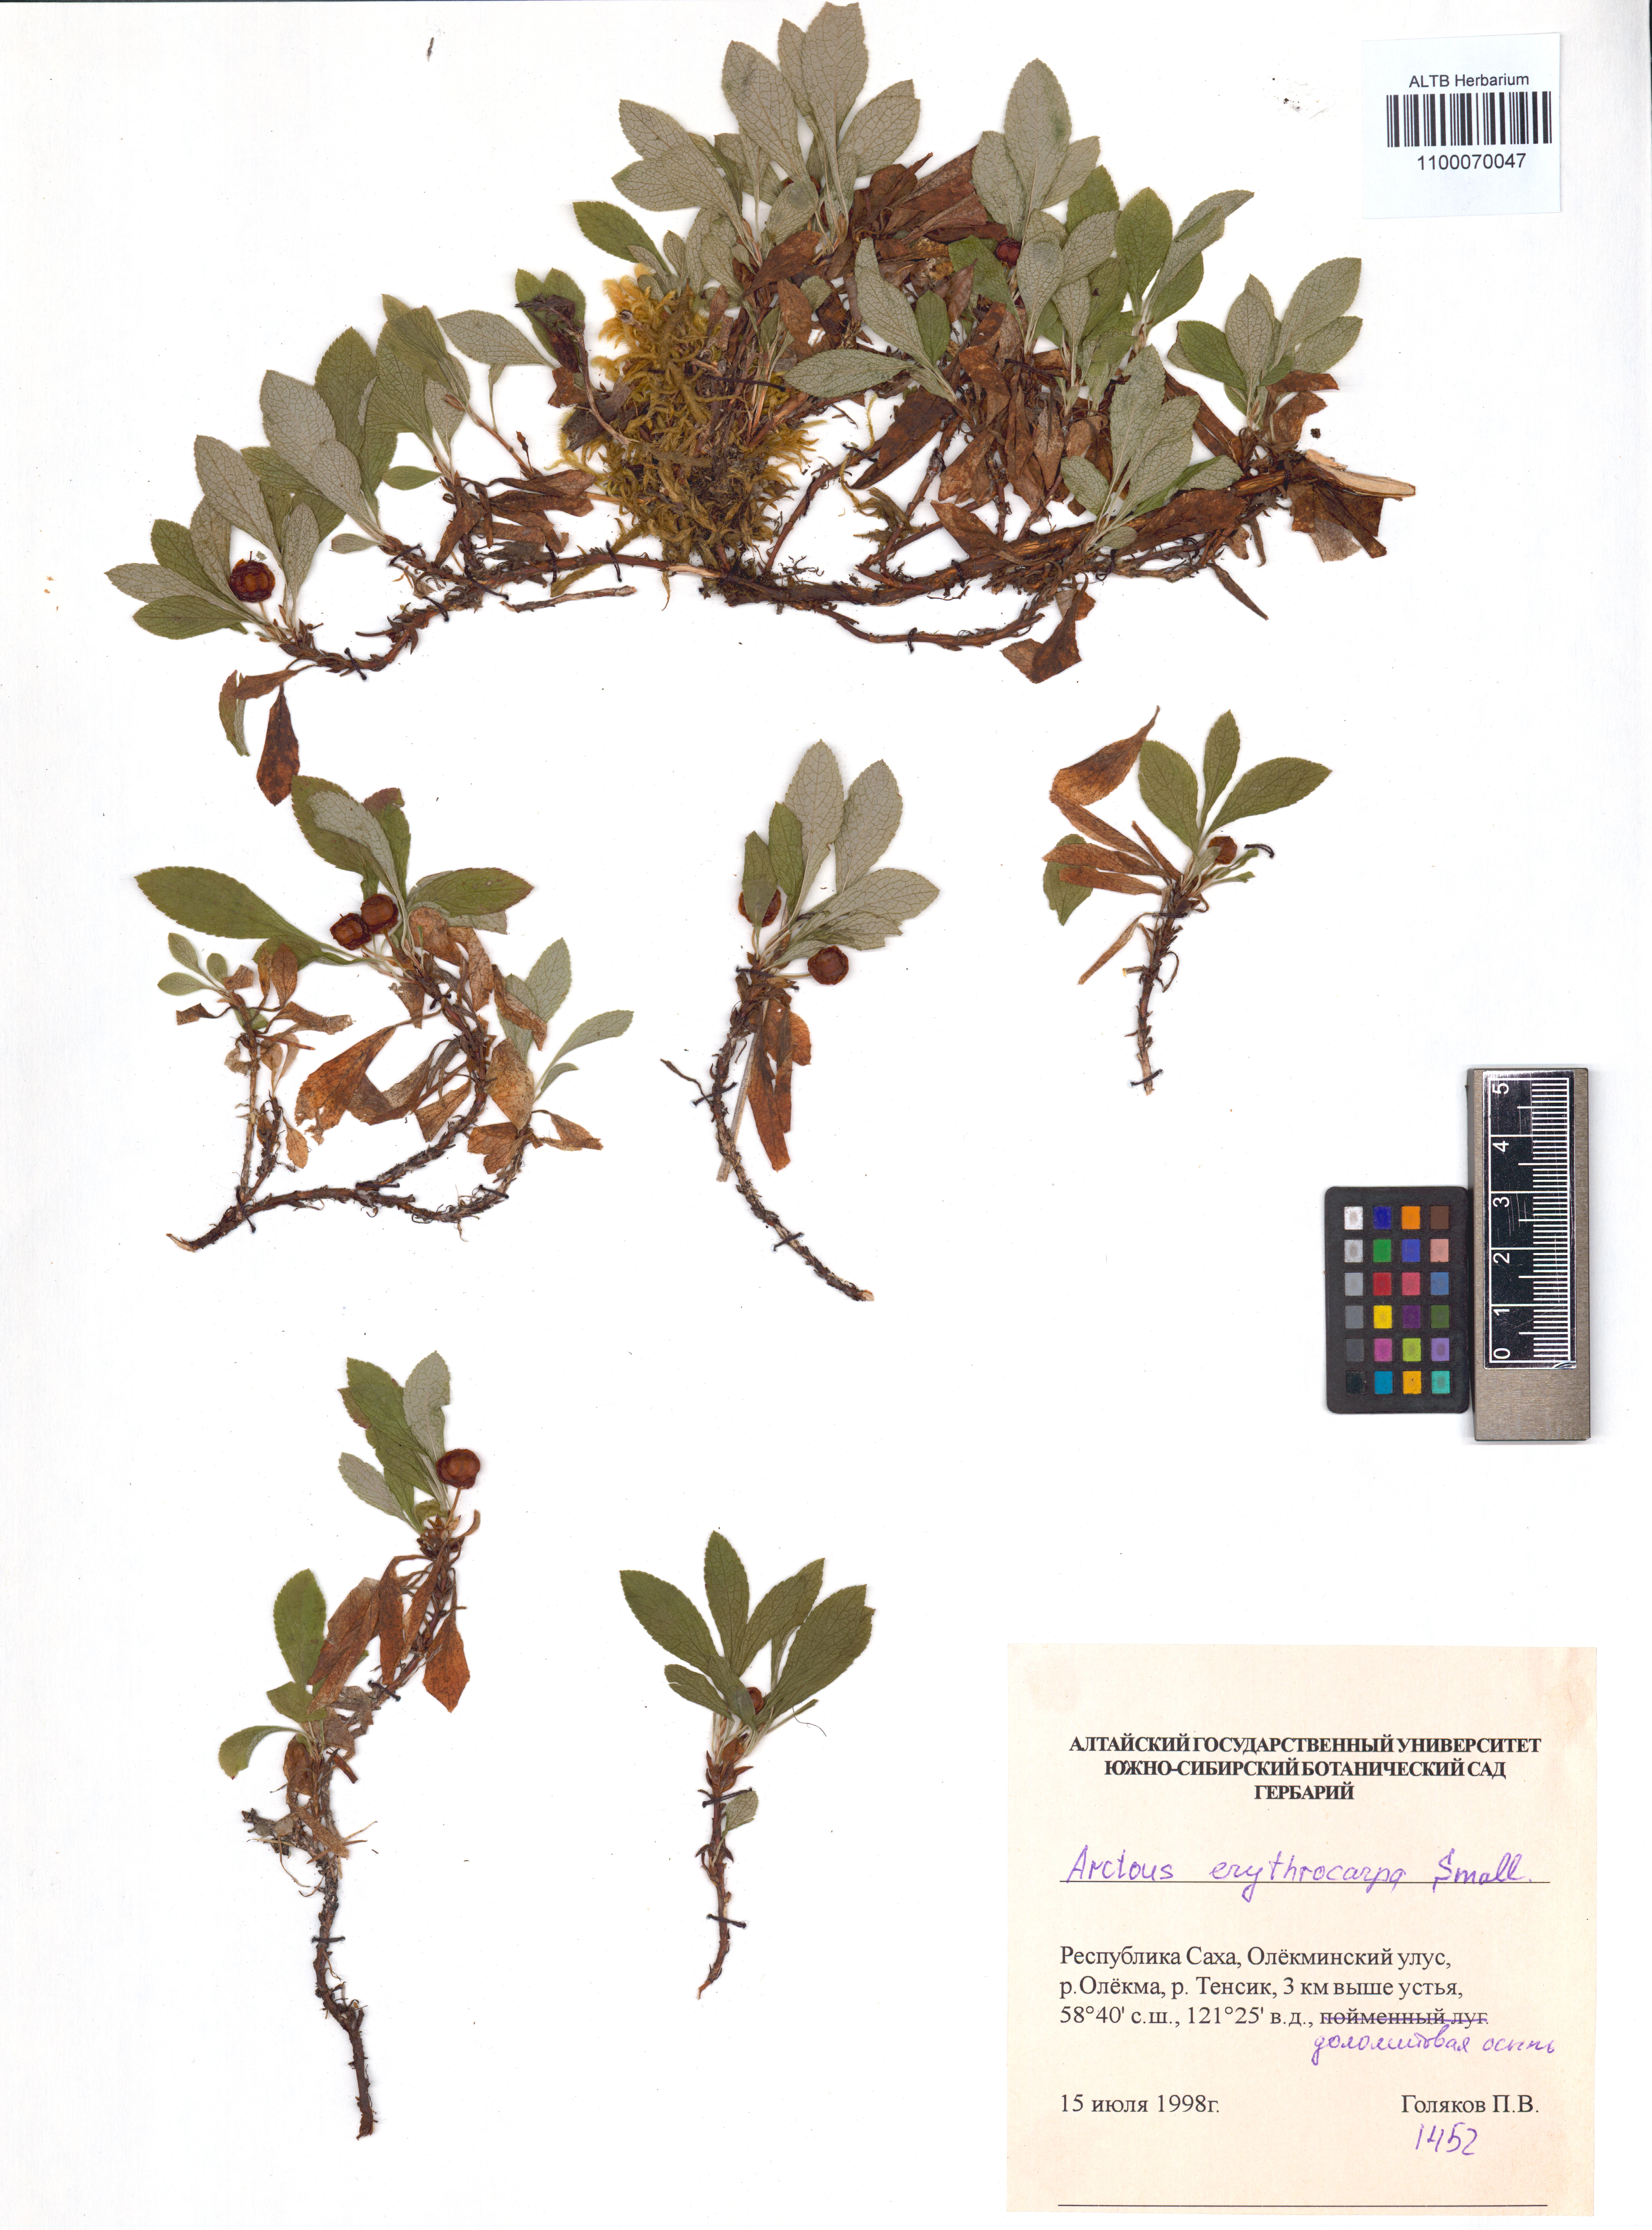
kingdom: Plantae
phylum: Tracheophyta
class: Magnoliopsida
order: Ericales
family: Ericaceae
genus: Arctostaphylos
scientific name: Arctostaphylos rubra
